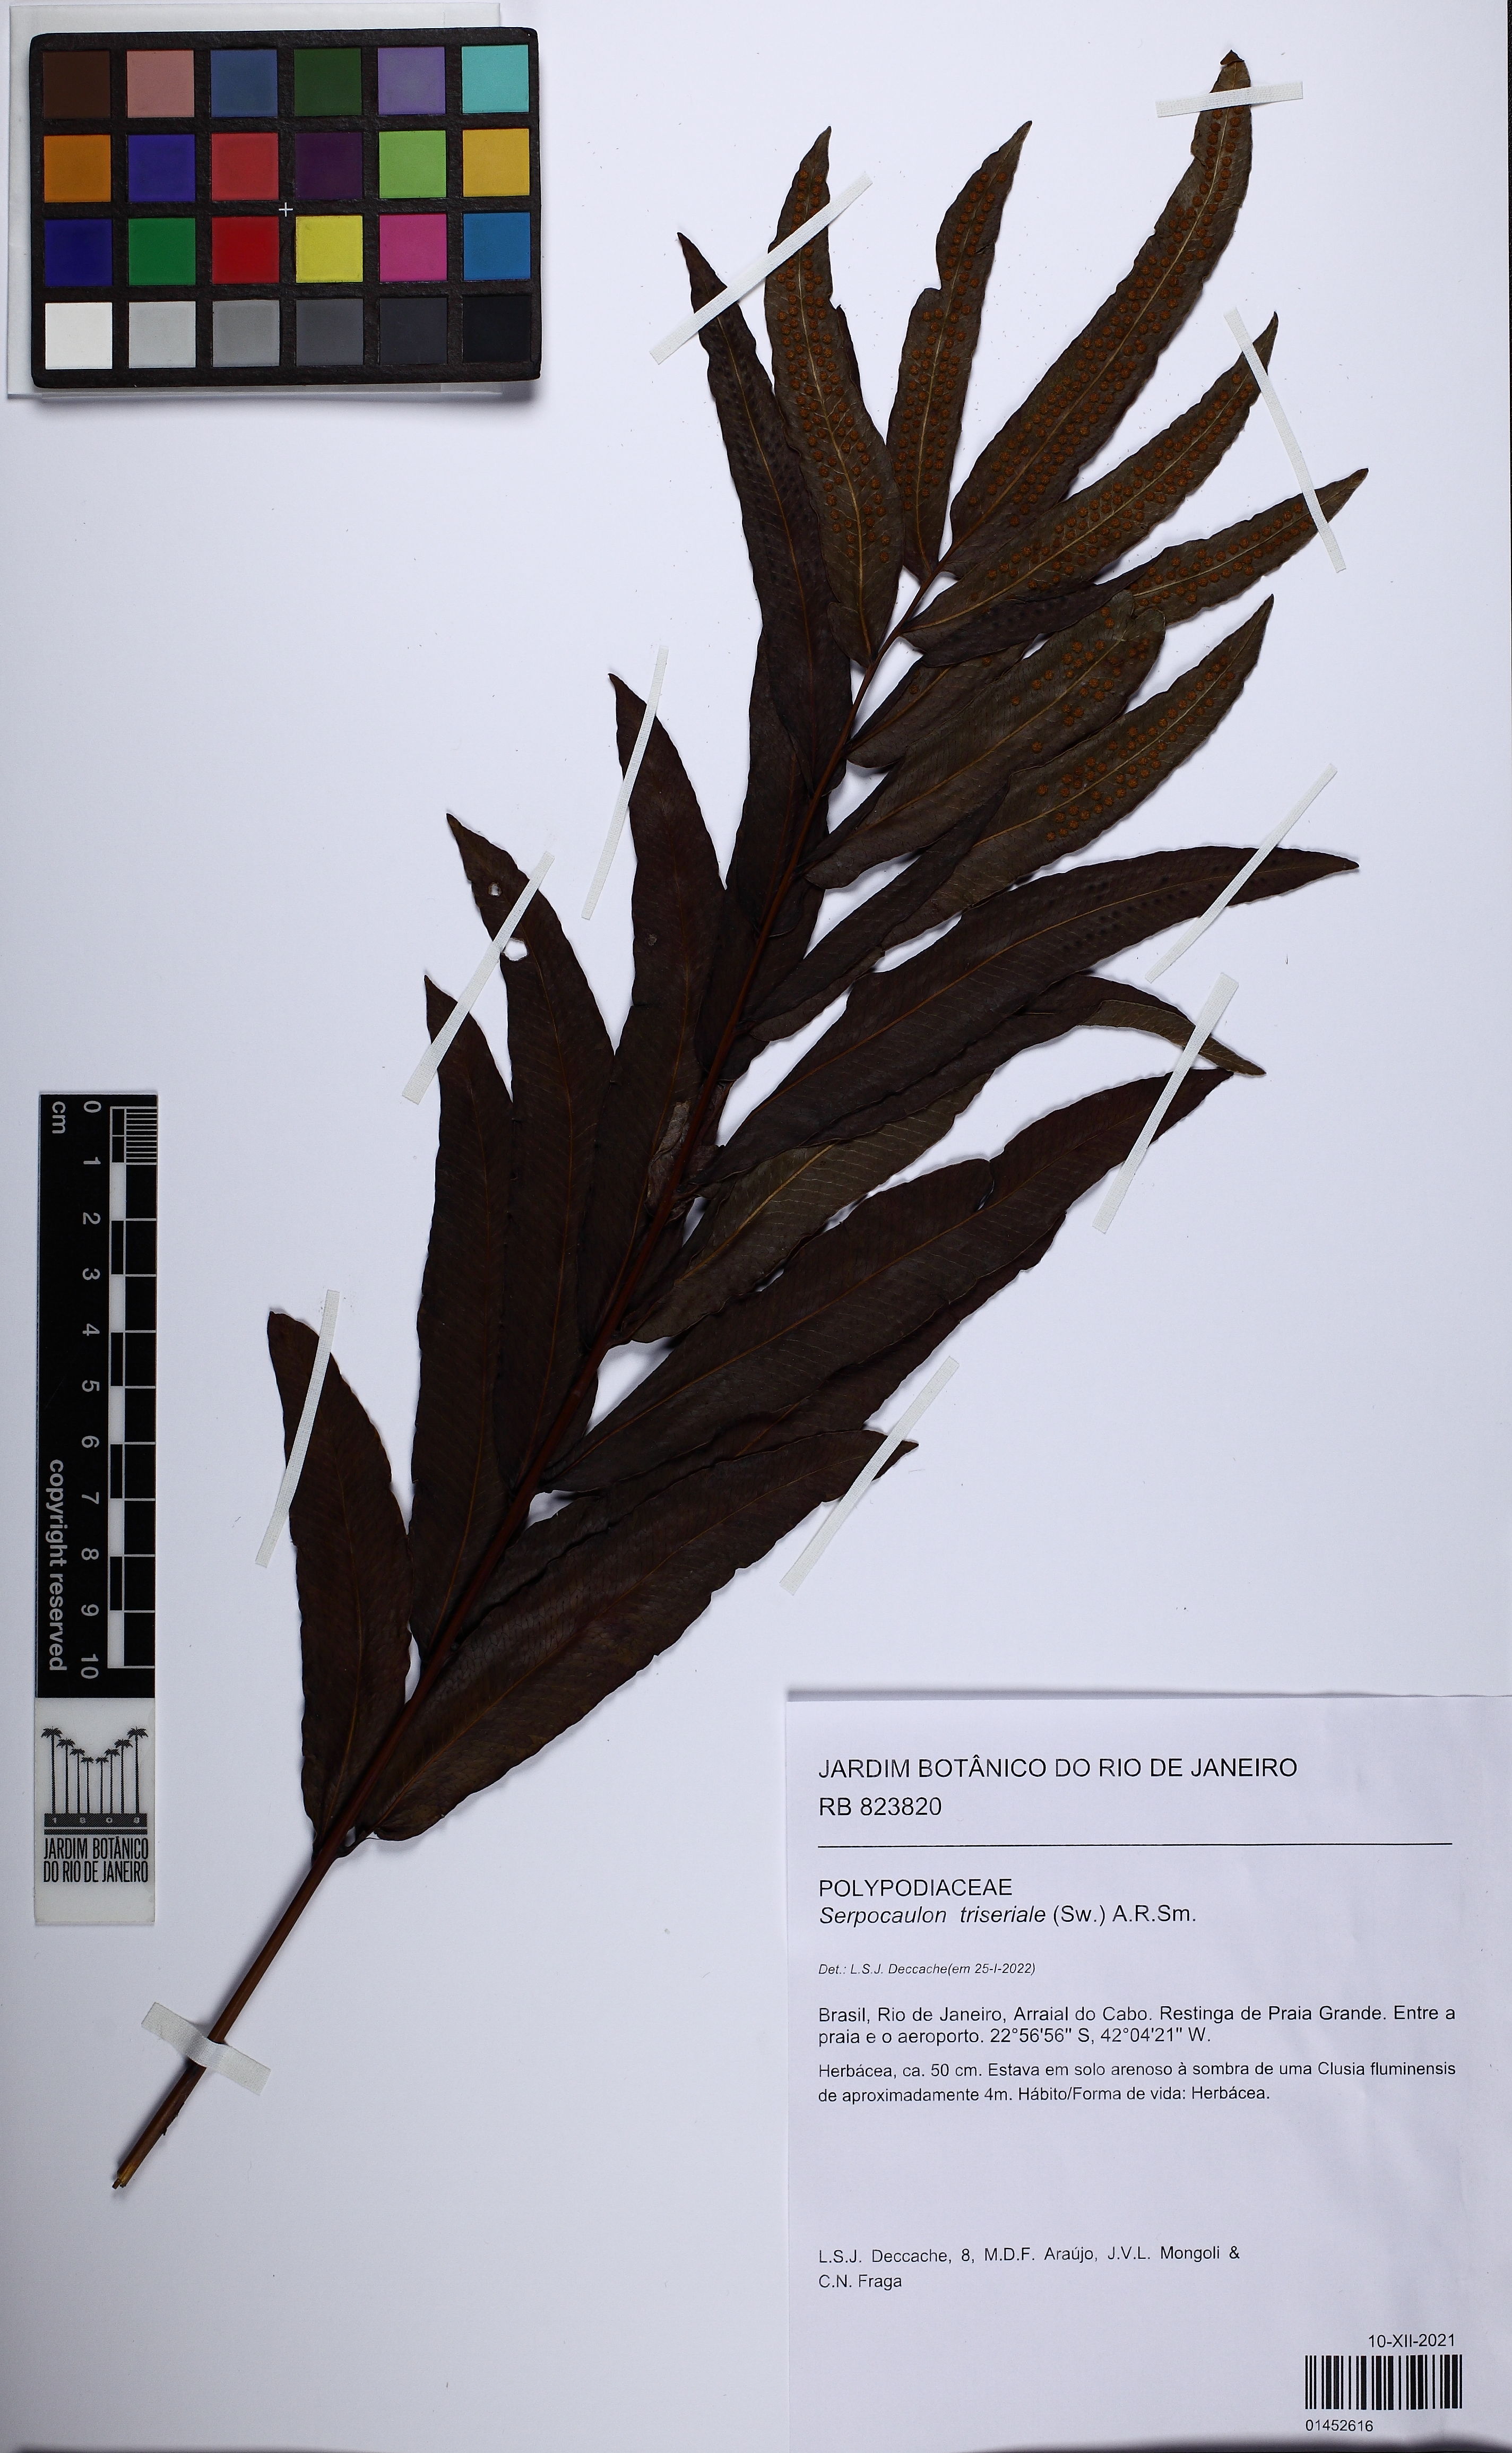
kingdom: Plantae
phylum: Tracheophyta
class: Polypodiopsida
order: Polypodiales
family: Polypodiaceae
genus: Serpocaulon
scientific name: Serpocaulon triseriale
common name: Angle-vein fern
